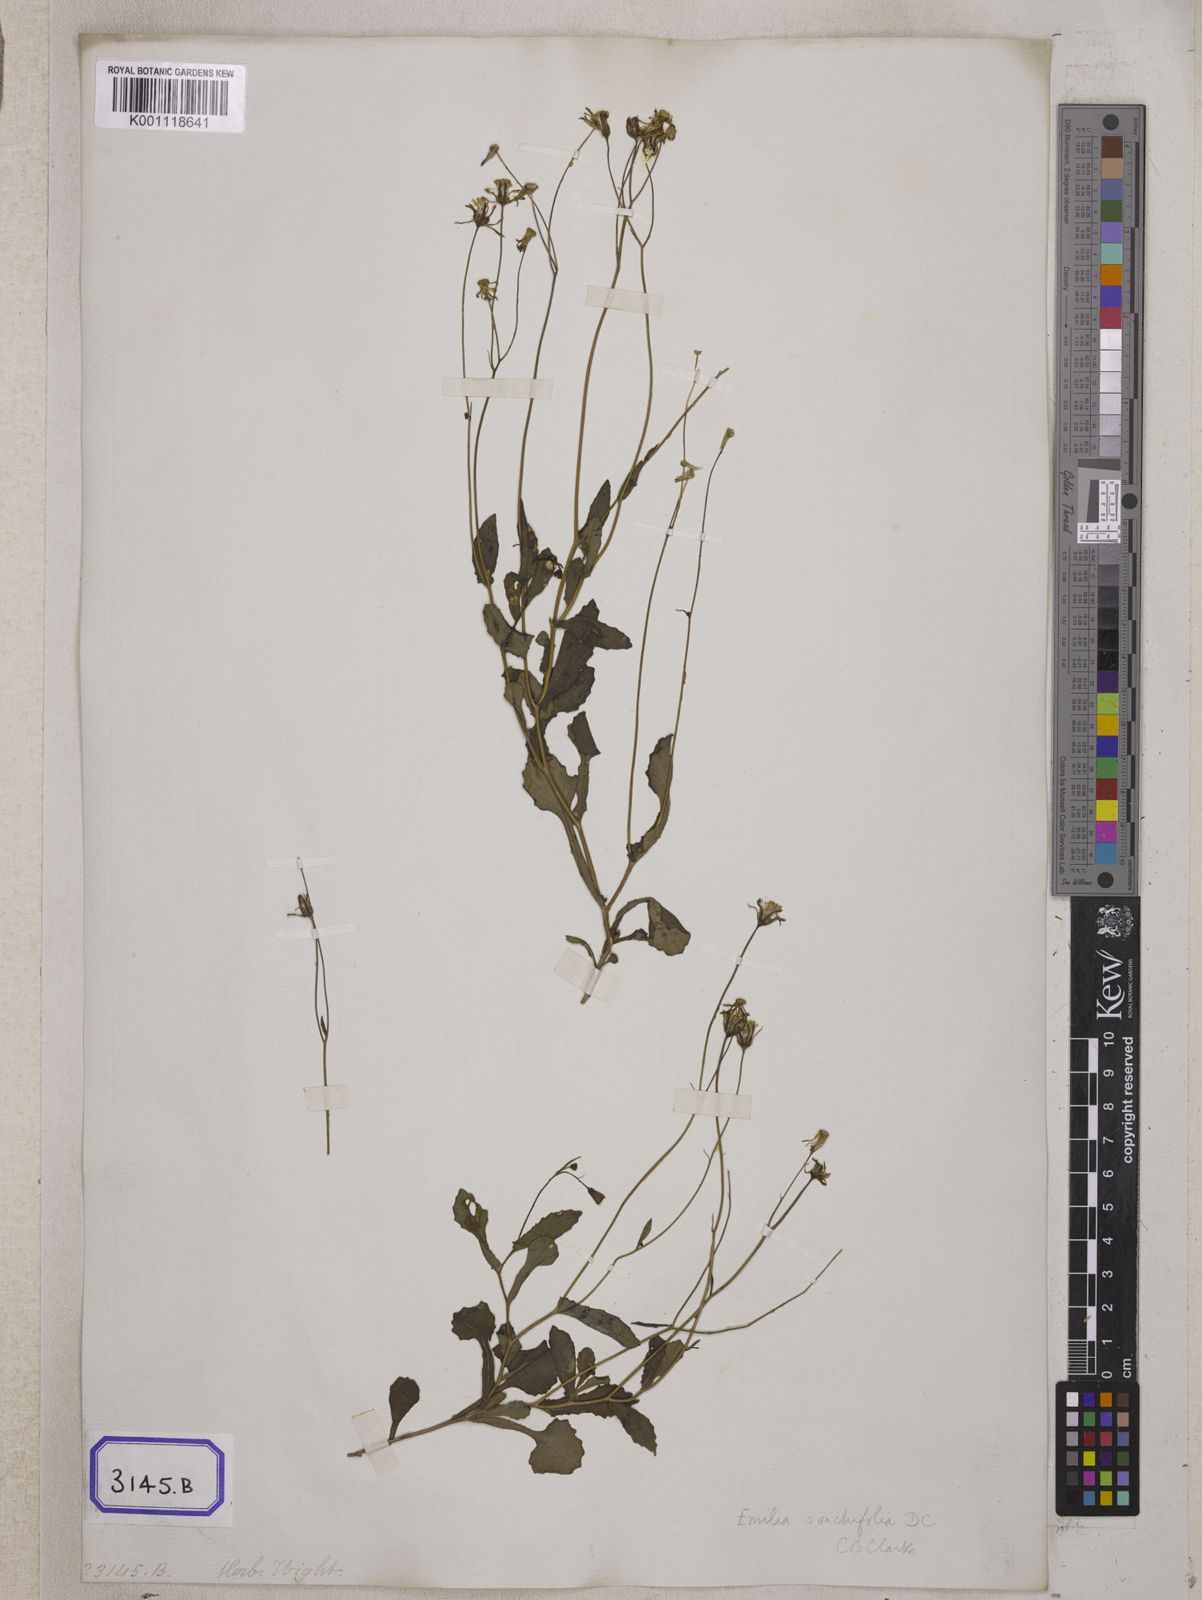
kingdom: Plantae
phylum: Tracheophyta
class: Magnoliopsida
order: Asterales
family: Asteraceae
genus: Emilia
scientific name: Emilia sonchifolia
